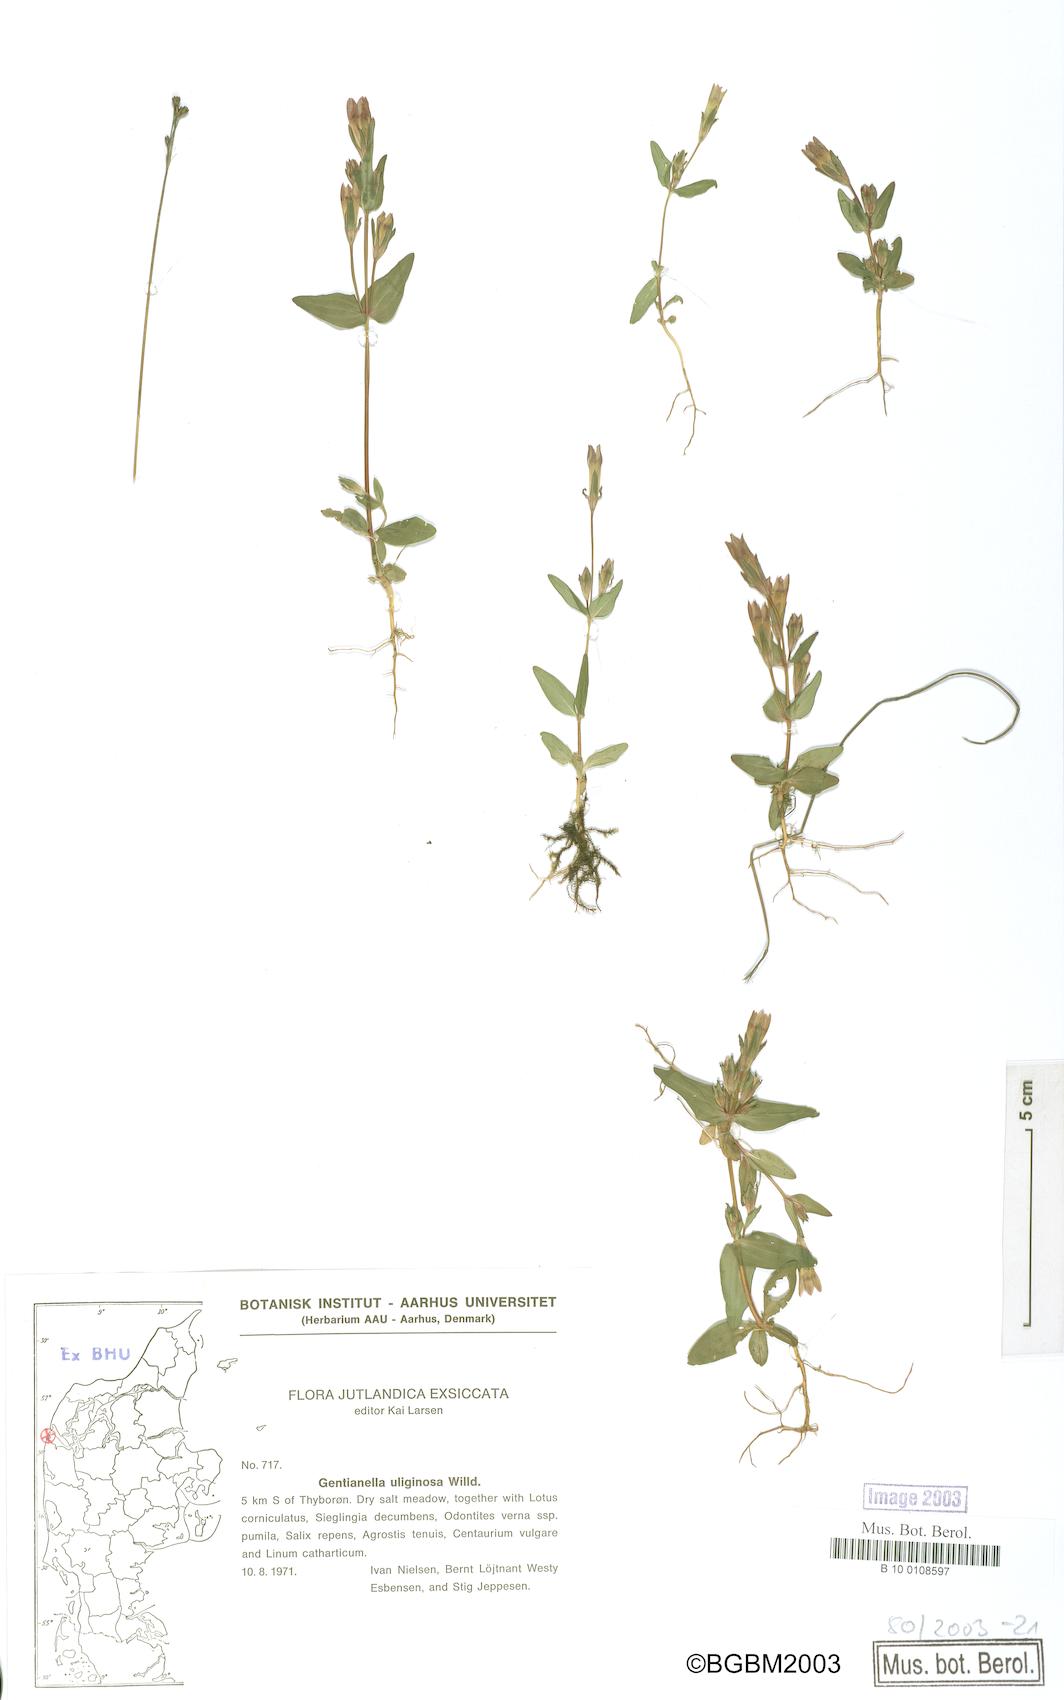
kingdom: Plantae
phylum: Tracheophyta
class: Magnoliopsida
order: Gentianales
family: Gentianaceae
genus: Gentianella
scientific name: Gentianella uliginosa
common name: Dune gentian
